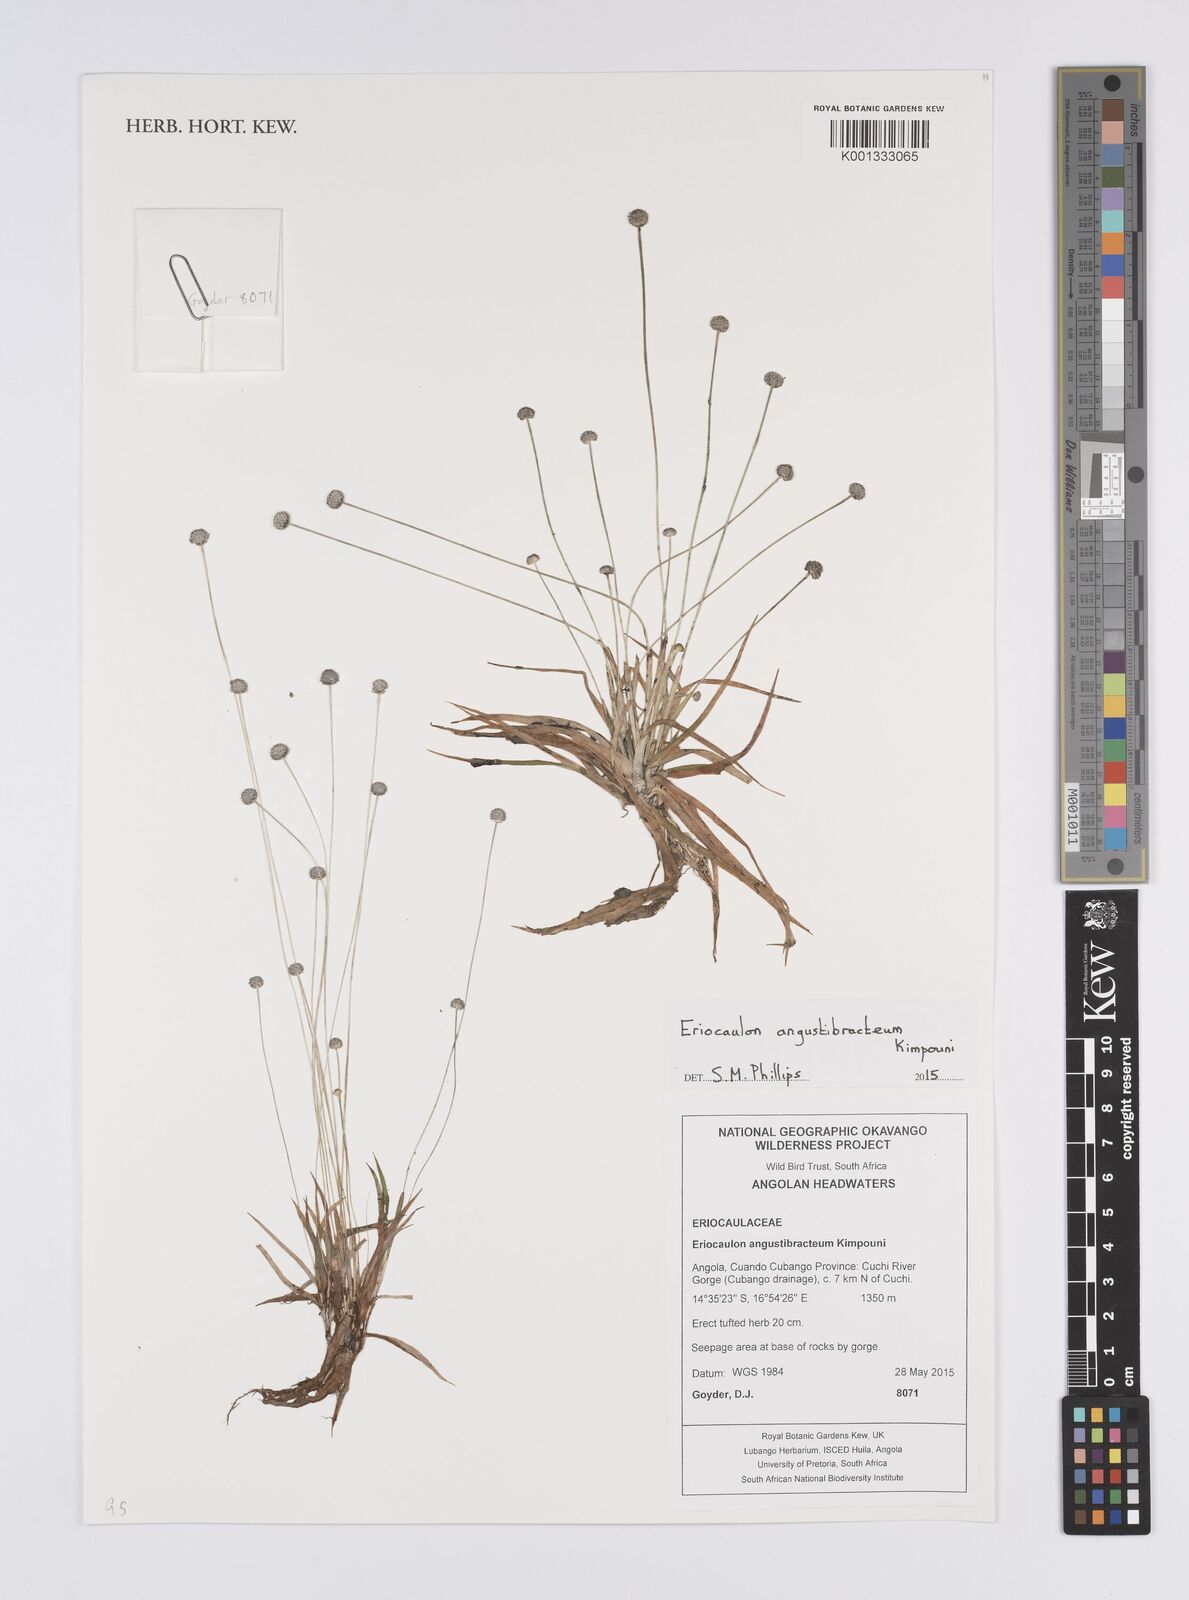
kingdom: Plantae
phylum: Tracheophyta
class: Liliopsida
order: Poales
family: Eriocaulaceae
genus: Eriocaulon
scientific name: Eriocaulon angustibracteum
